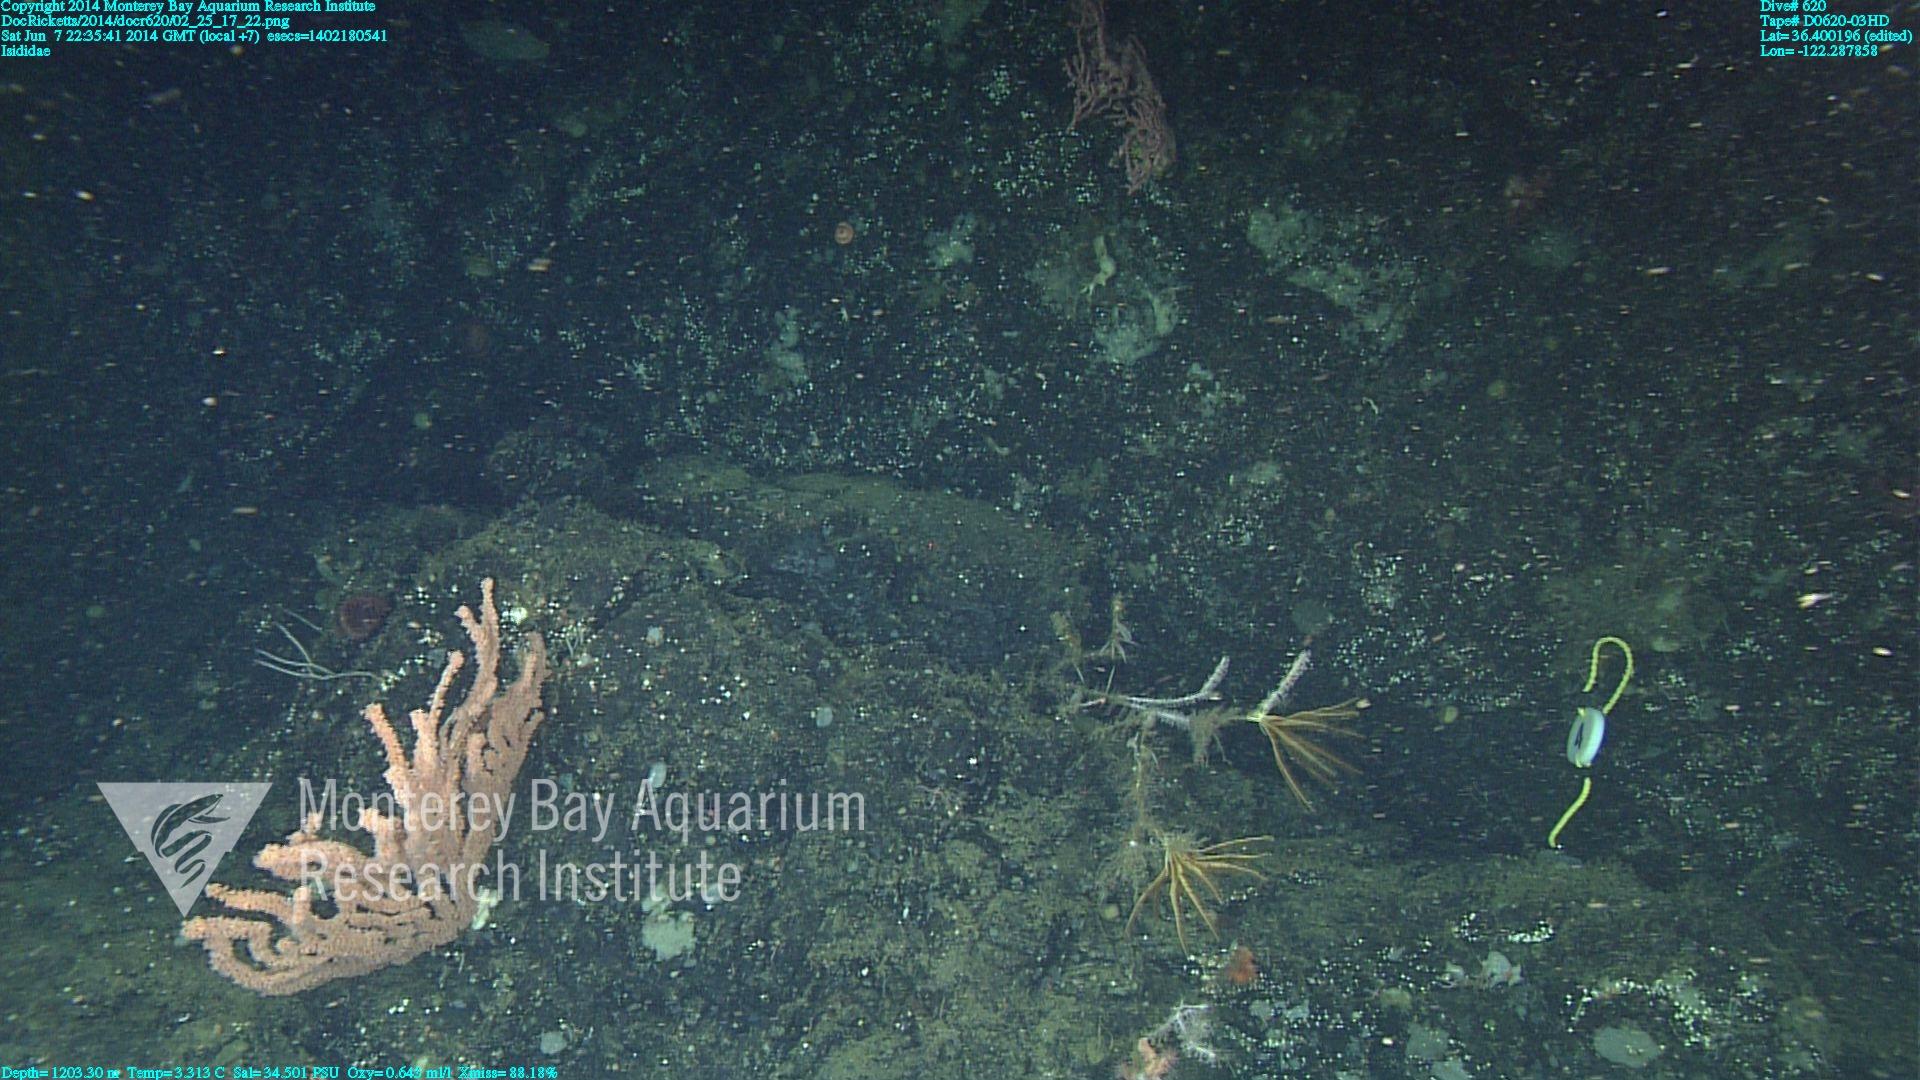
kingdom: Animalia
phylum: Cnidaria
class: Anthozoa
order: Scleralcyonacea
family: Keratoisididae
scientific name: Keratoisididae
